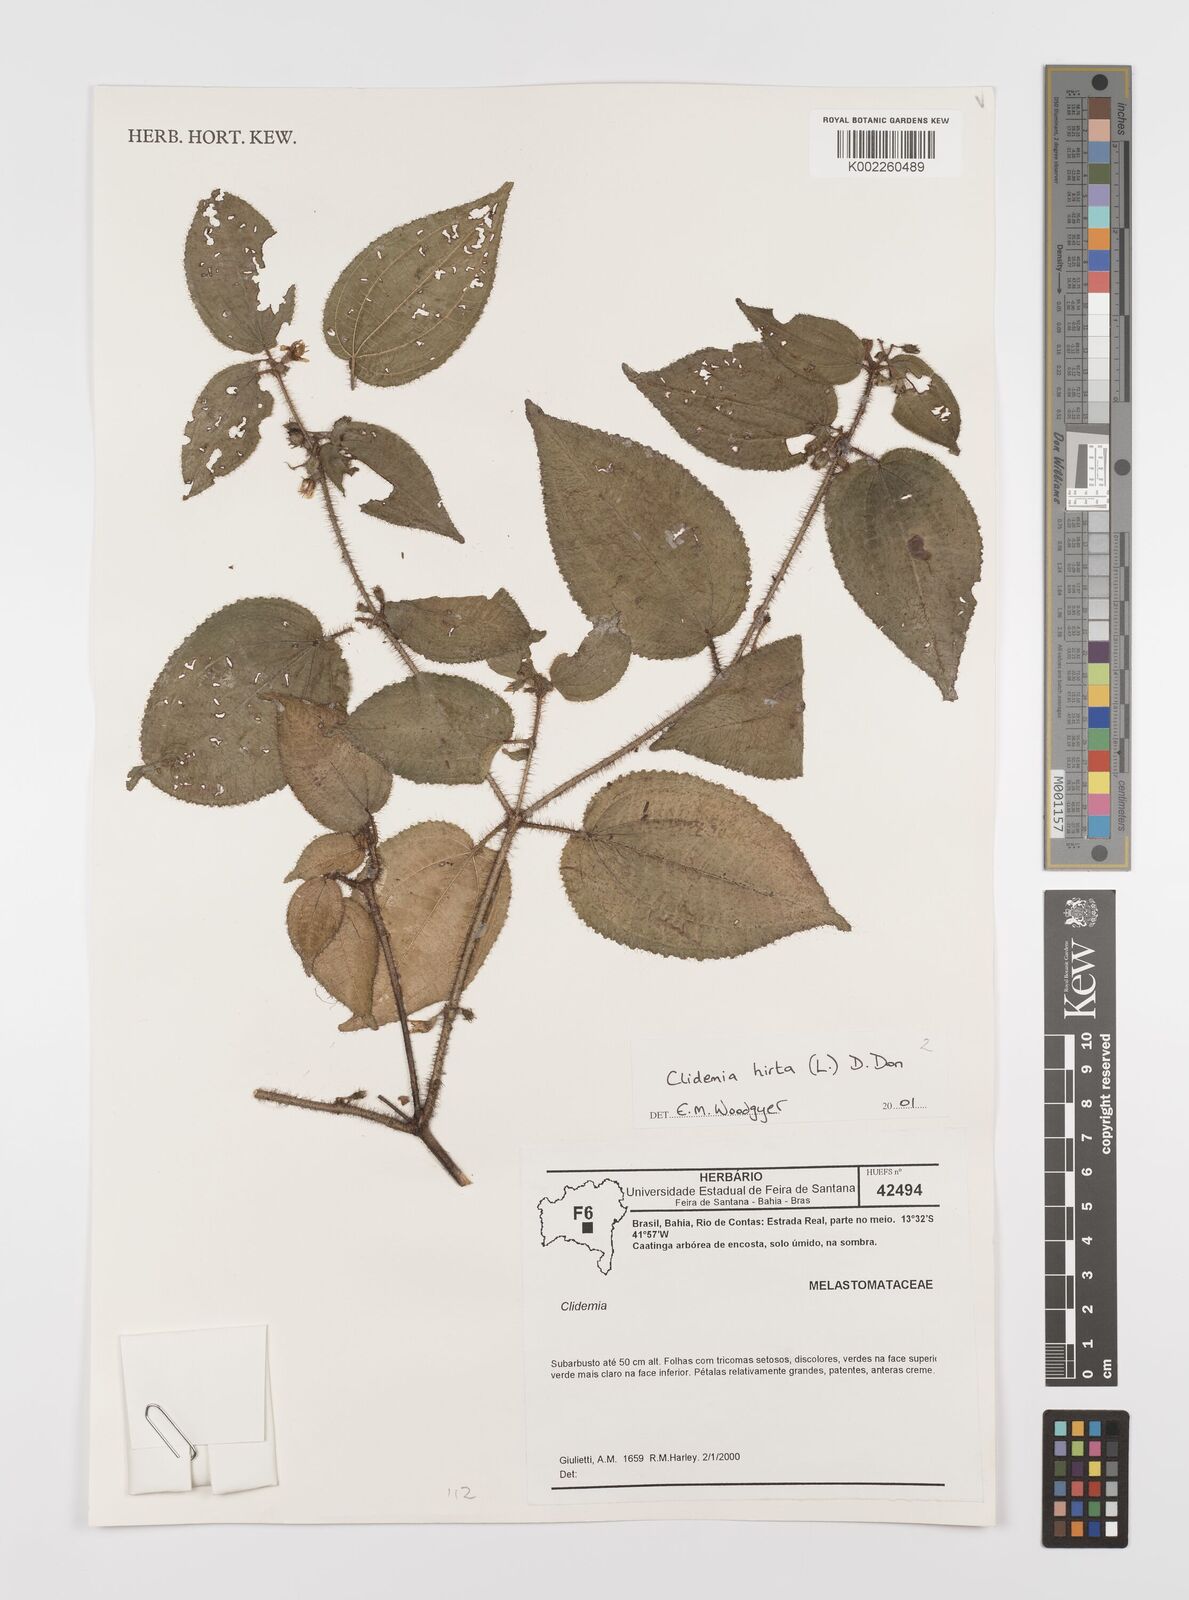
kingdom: Plantae
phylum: Tracheophyta
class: Magnoliopsida
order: Myrtales
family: Melastomataceae
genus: Miconia
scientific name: Miconia crenata
